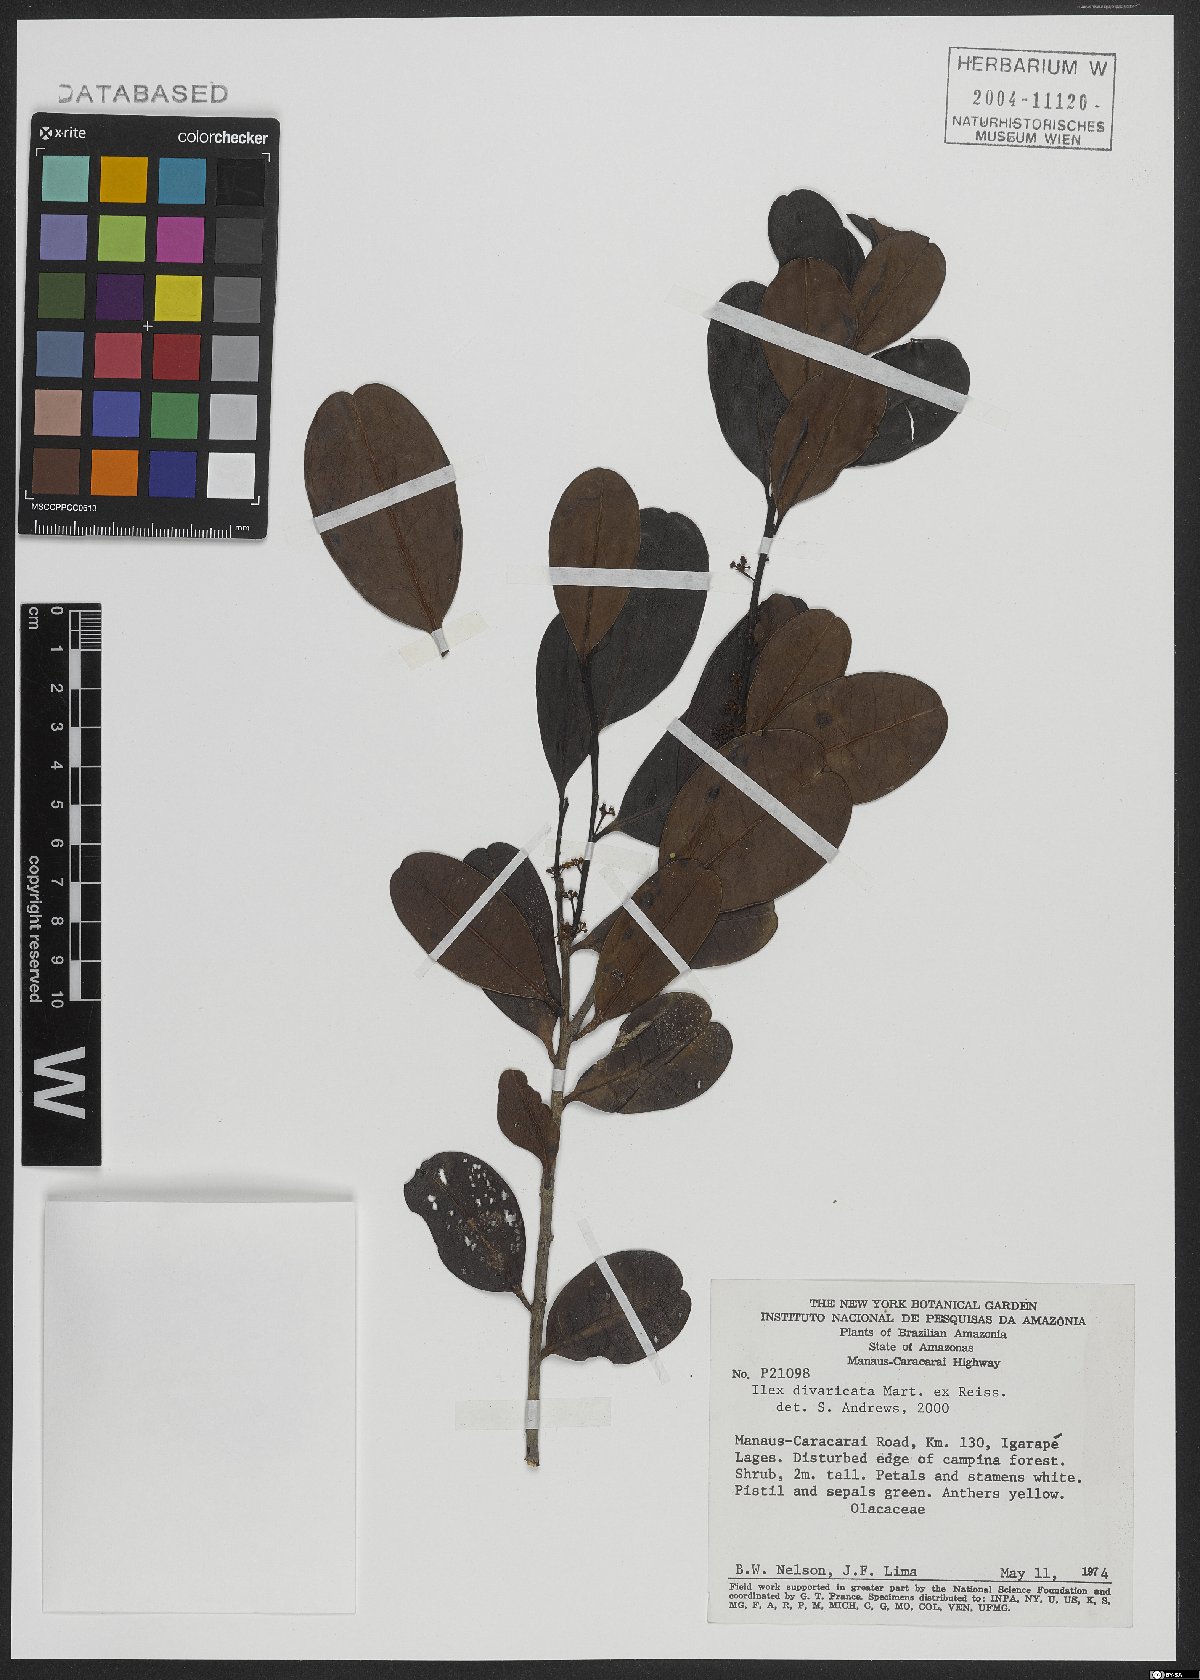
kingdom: Plantae
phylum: Tracheophyta
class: Magnoliopsida
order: Aquifoliales
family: Aquifoliaceae
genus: Ilex
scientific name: Ilex divaricata
